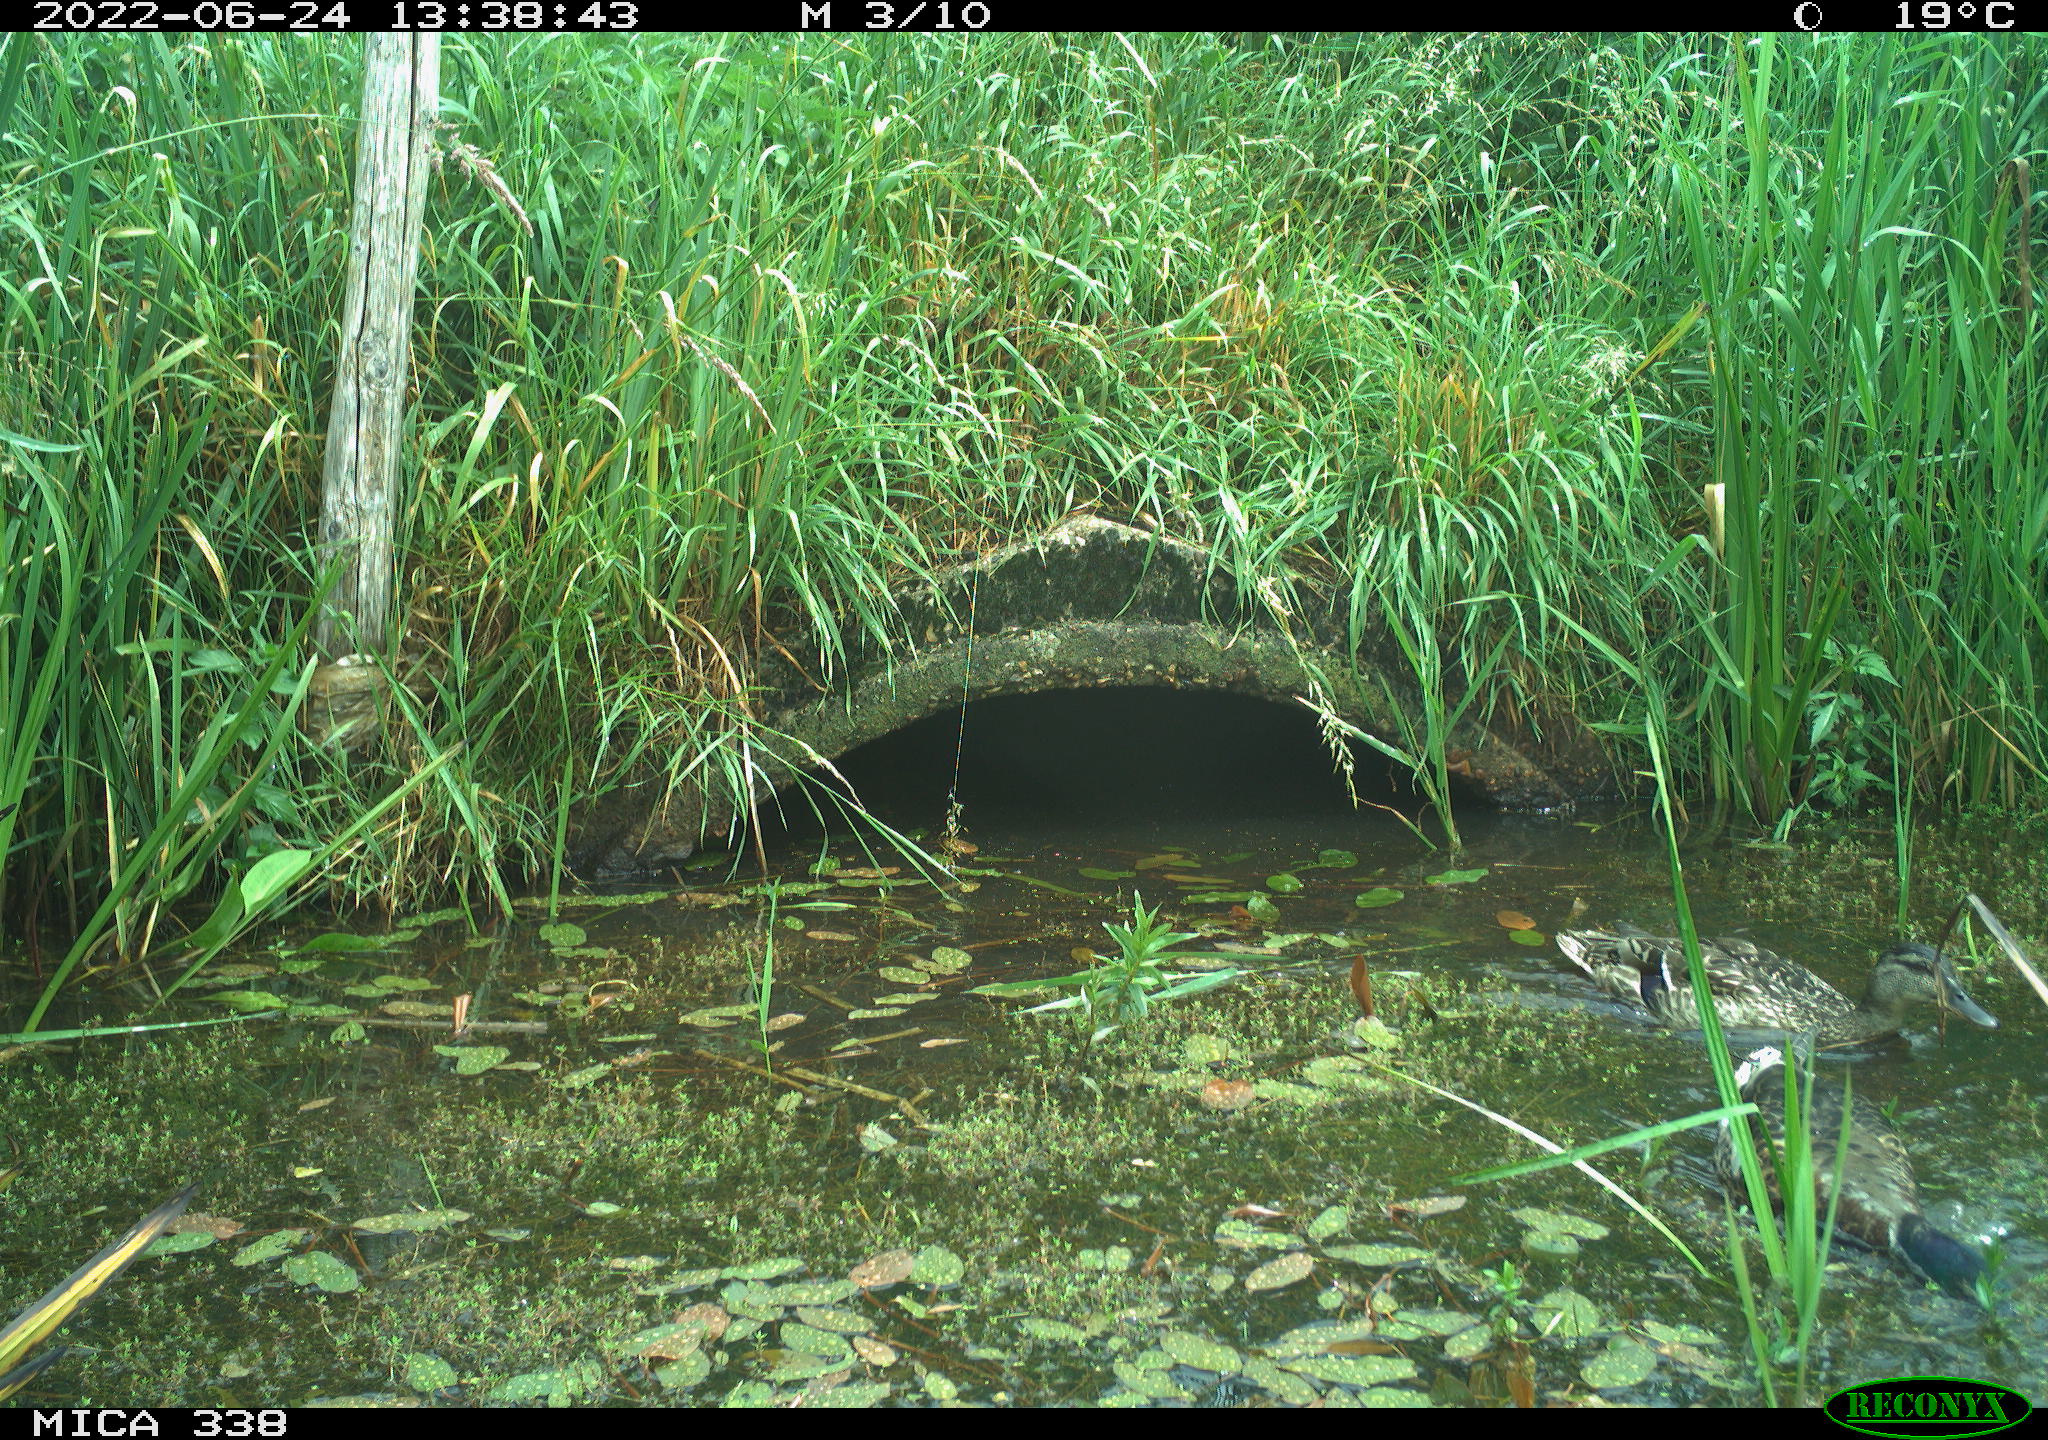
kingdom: Animalia
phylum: Chordata
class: Aves
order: Anseriformes
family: Anatidae
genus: Anas
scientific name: Anas platyrhynchos
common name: Mallard
